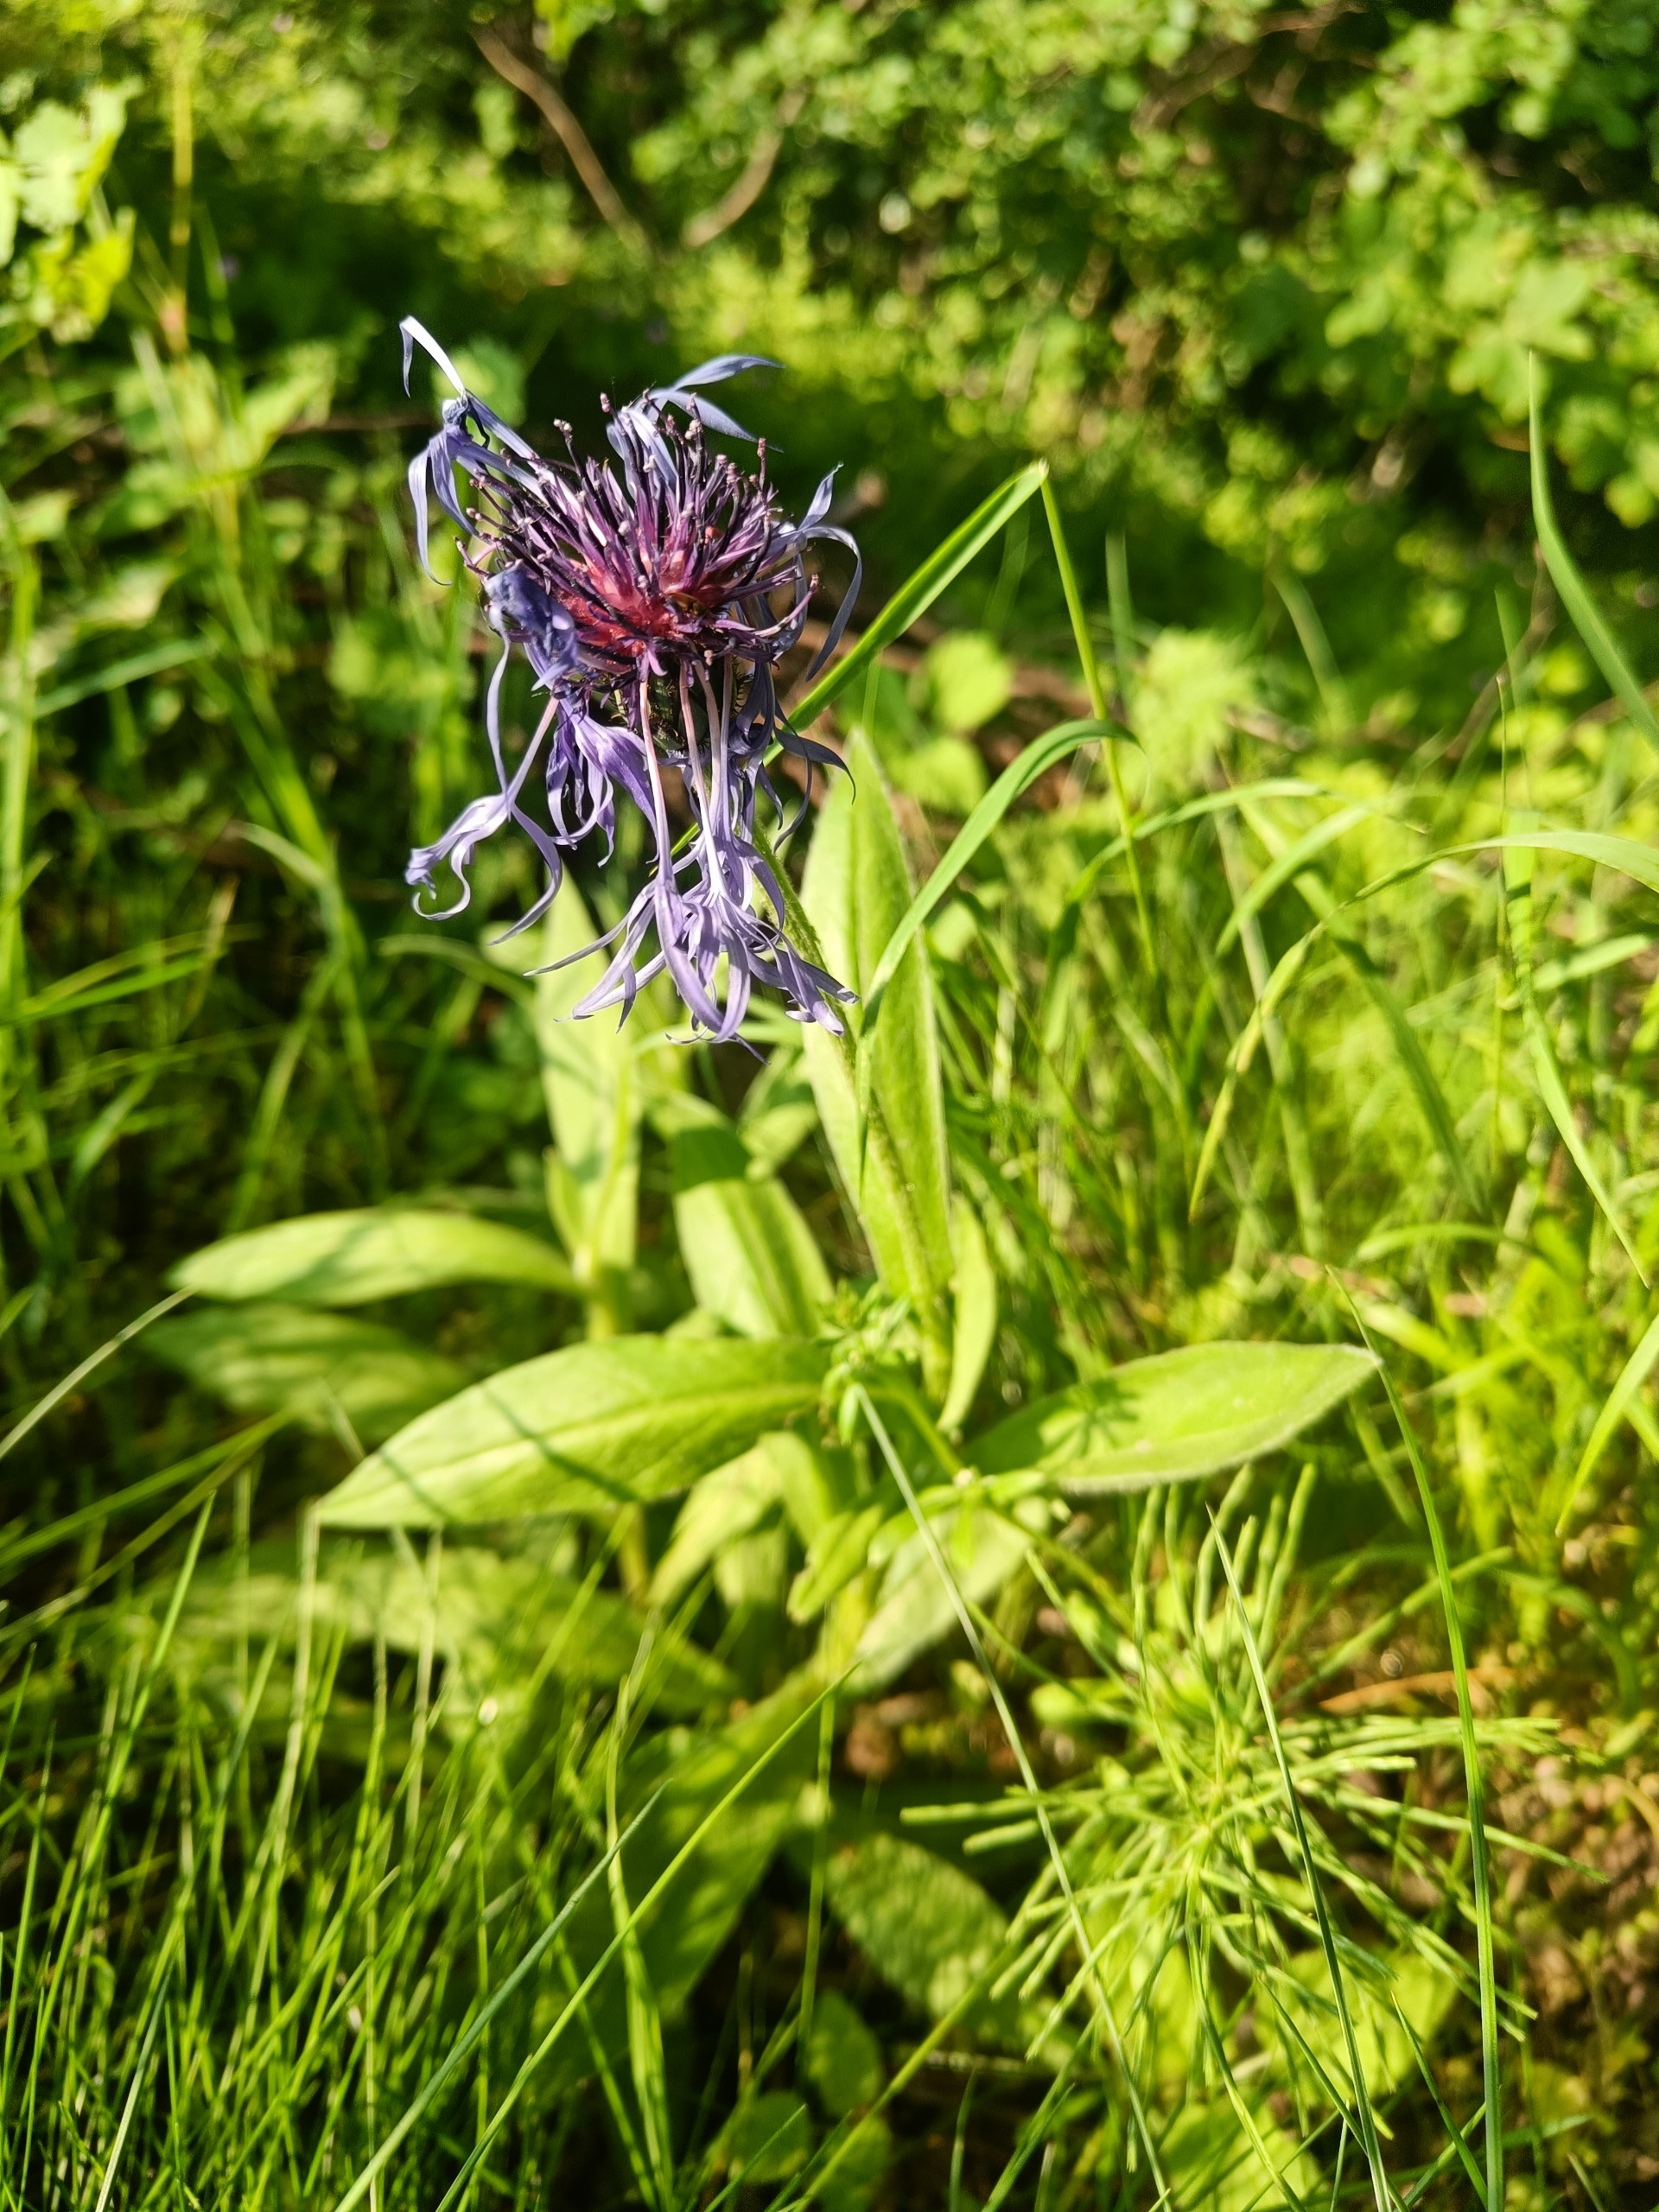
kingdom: Plantae
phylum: Tracheophyta
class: Magnoliopsida
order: Asterales
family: Asteraceae
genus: Centaurea
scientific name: Centaurea montana
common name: Bjerg-knopurt
